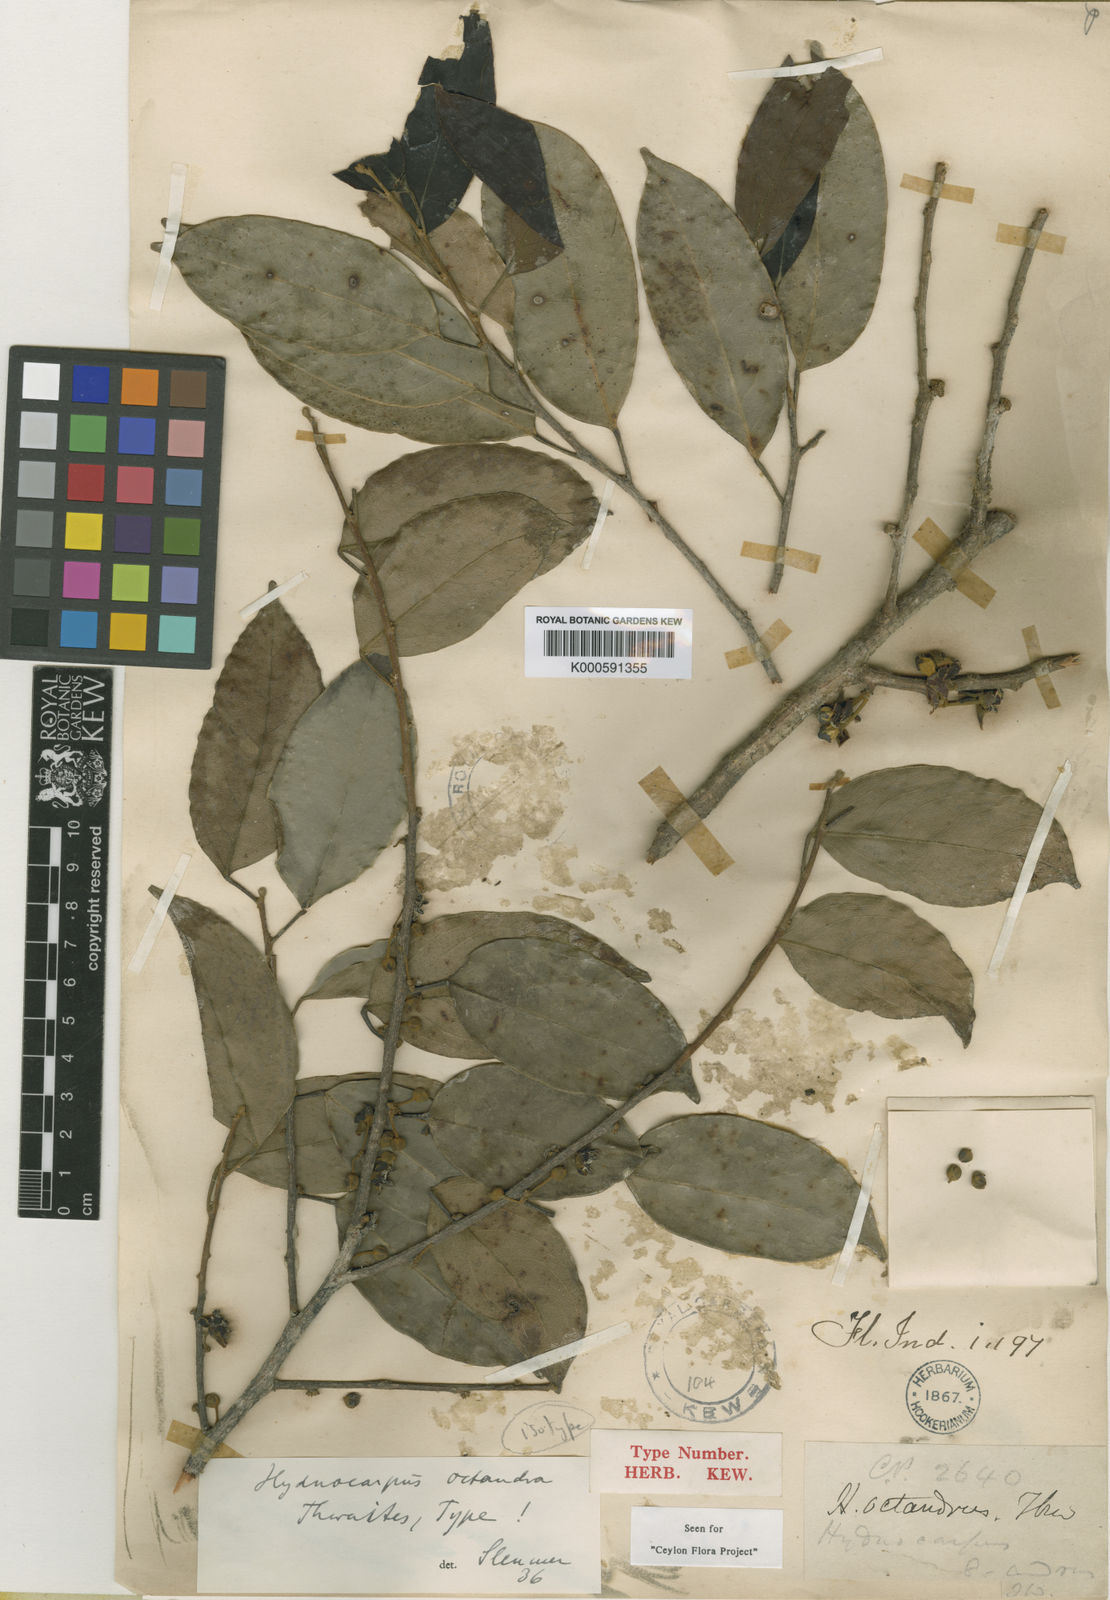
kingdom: Plantae
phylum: Tracheophyta
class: Magnoliopsida
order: Malpighiales
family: Achariaceae
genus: Hydnocarpus
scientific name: Hydnocarpus octandrus
